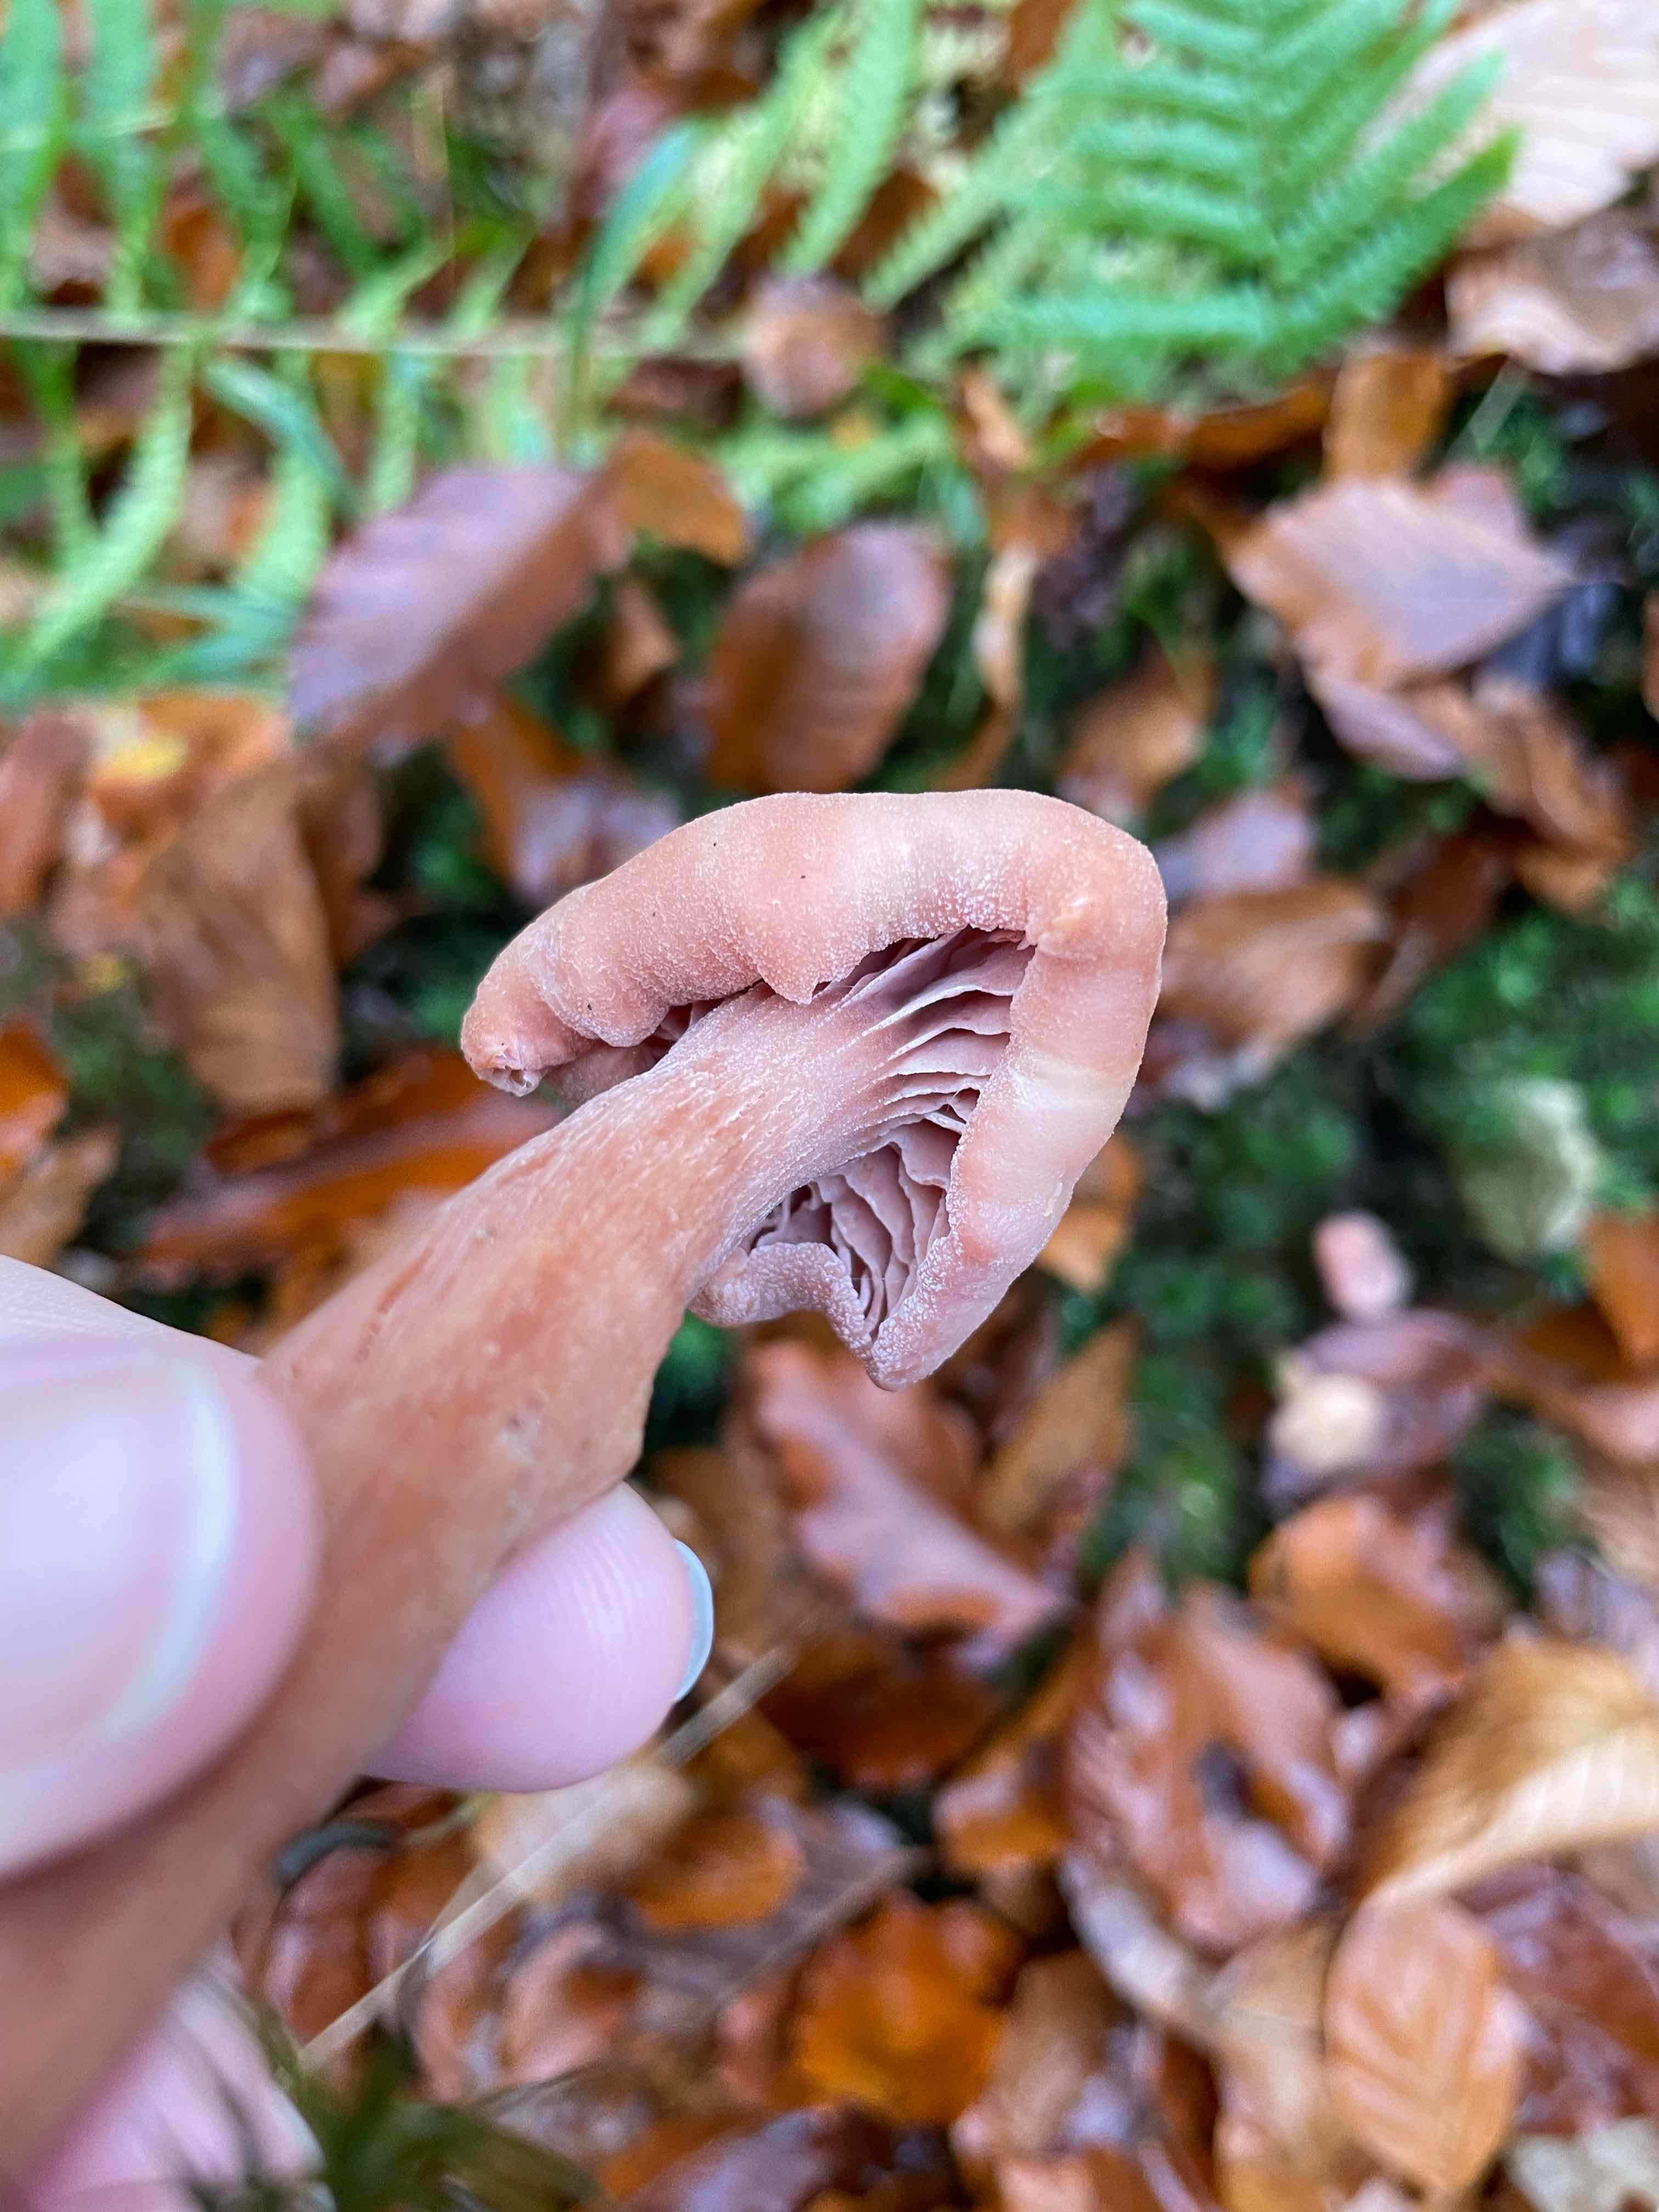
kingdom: Fungi
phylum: Basidiomycota
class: Agaricomycetes
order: Agaricales
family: Hydnangiaceae
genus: Laccaria
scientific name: Laccaria proxima
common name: stor ametysthat
